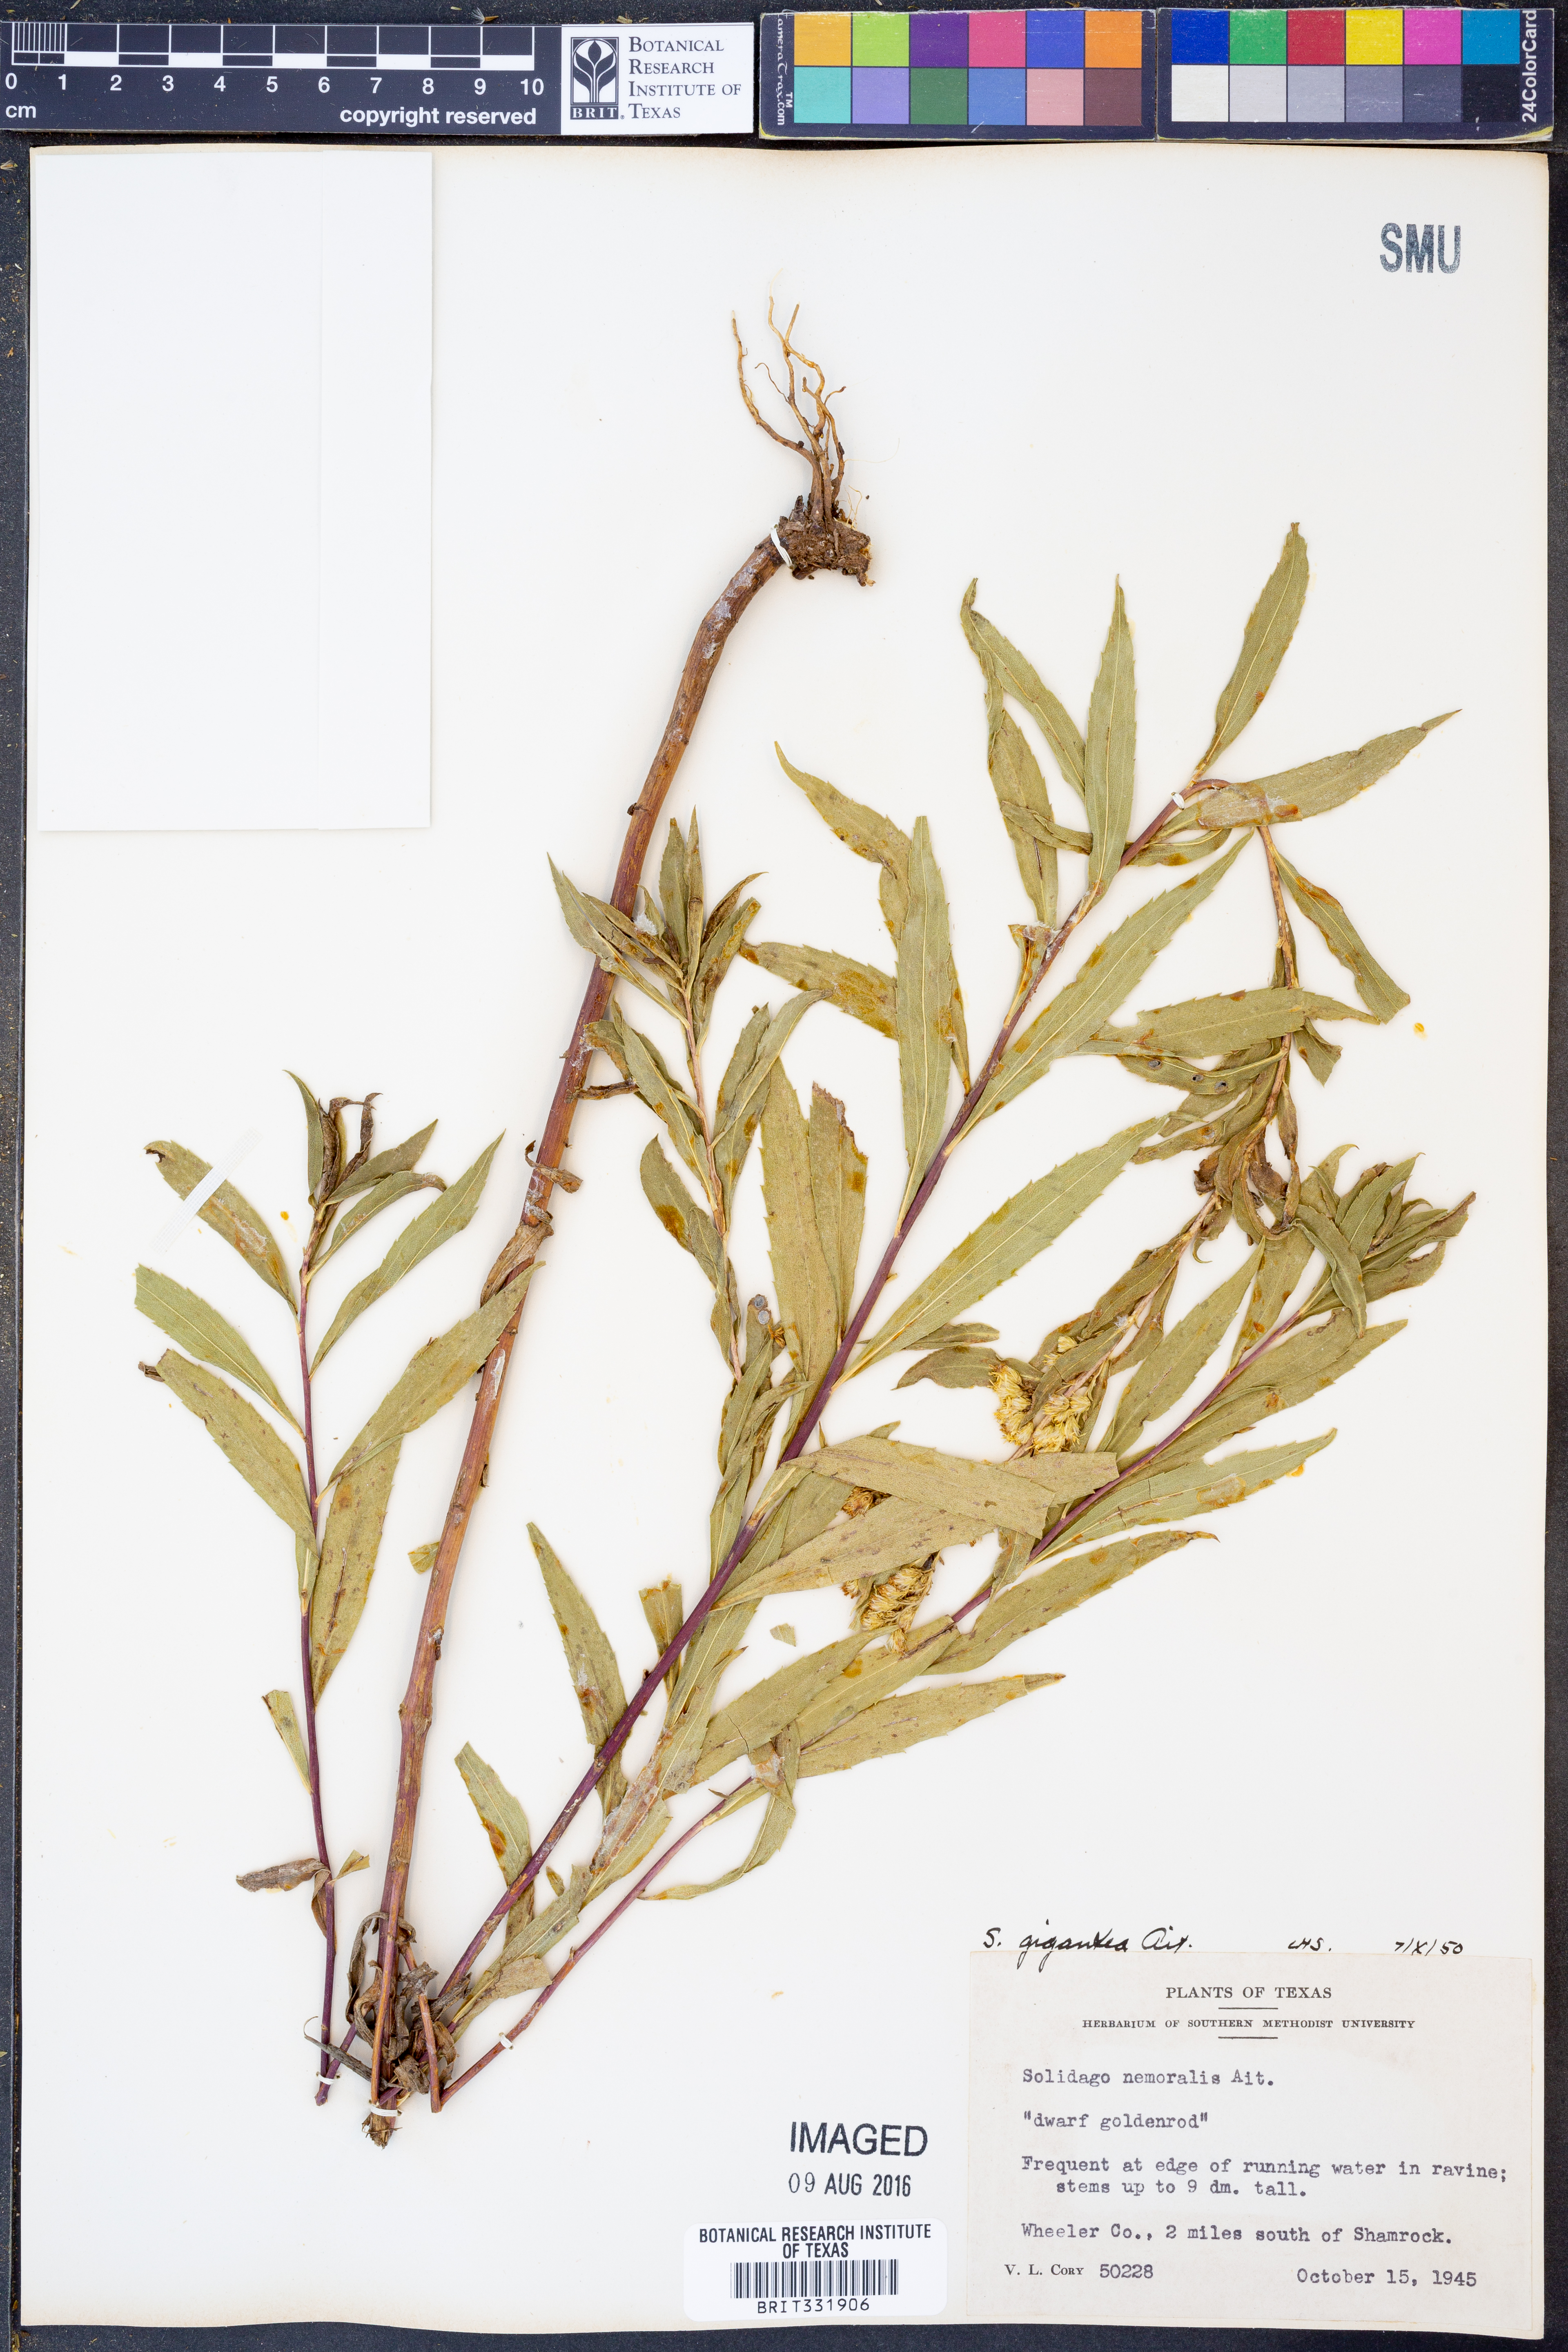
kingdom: Plantae
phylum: Tracheophyta
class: Magnoliopsida
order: Asterales
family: Asteraceae
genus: Solidago
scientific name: Solidago gigantea
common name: Giant goldenrod
